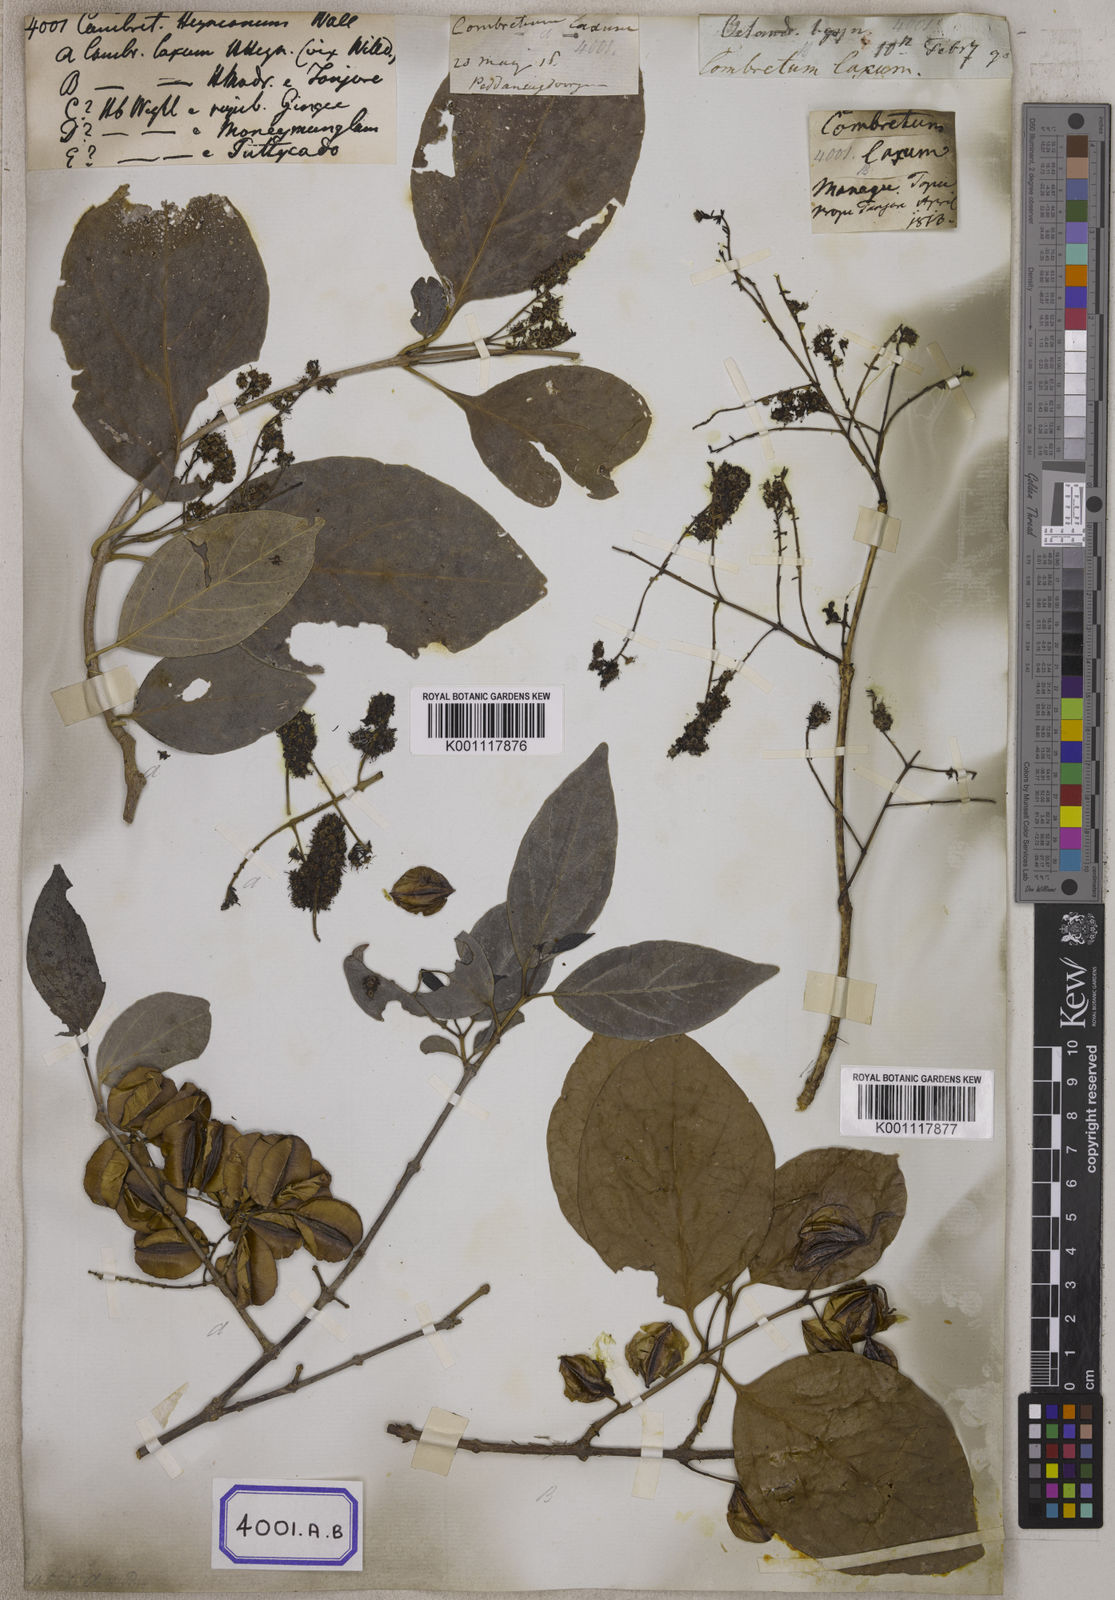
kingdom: Plantae
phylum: Tracheophyta
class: Magnoliopsida
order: Myrtales
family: Combretaceae
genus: Combretum
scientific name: Combretum albidum
